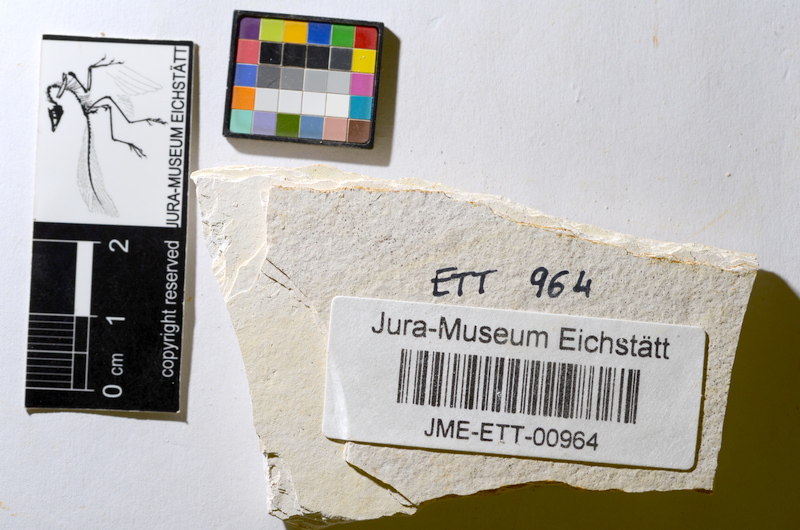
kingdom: Animalia
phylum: Chordata
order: Salmoniformes
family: Orthogonikleithridae
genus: Orthogonikleithrus
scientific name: Orthogonikleithrus hoelli
